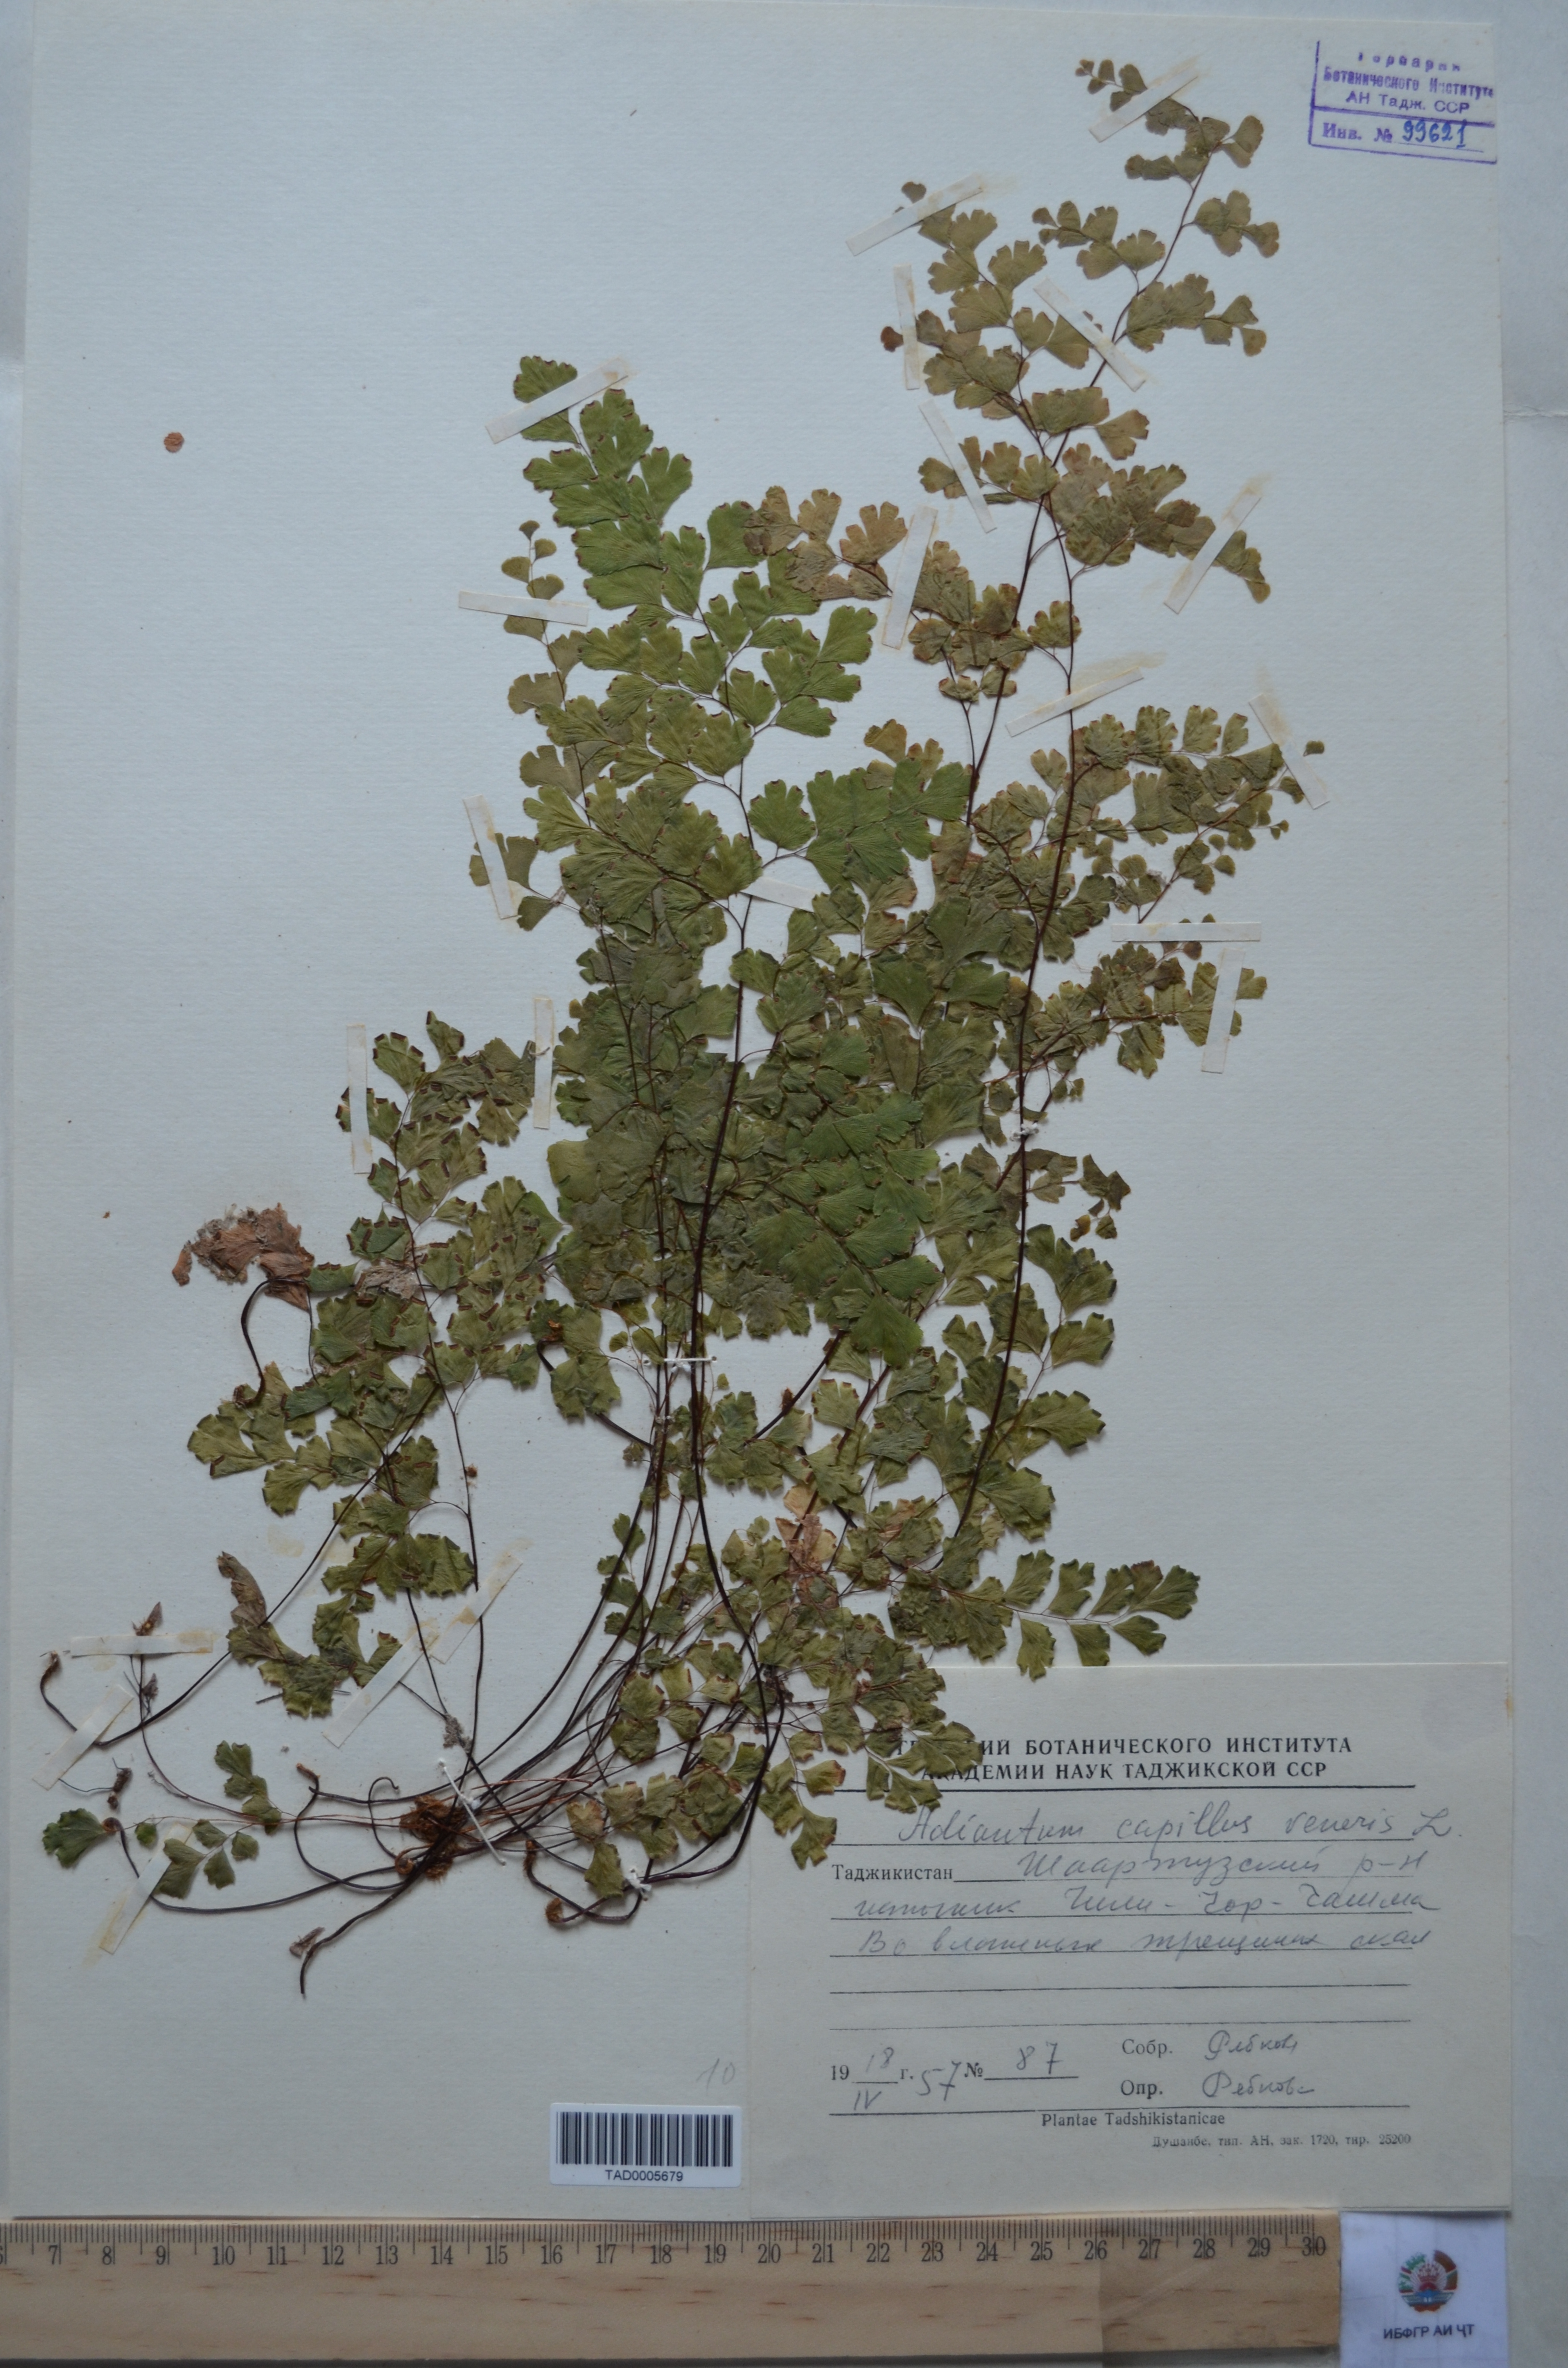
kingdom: Plantae
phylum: Tracheophyta
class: Polypodiopsida
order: Polypodiales
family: Pteridaceae
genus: Adiantum
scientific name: Adiantum capillus-veneris
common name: Maidenhair fern
